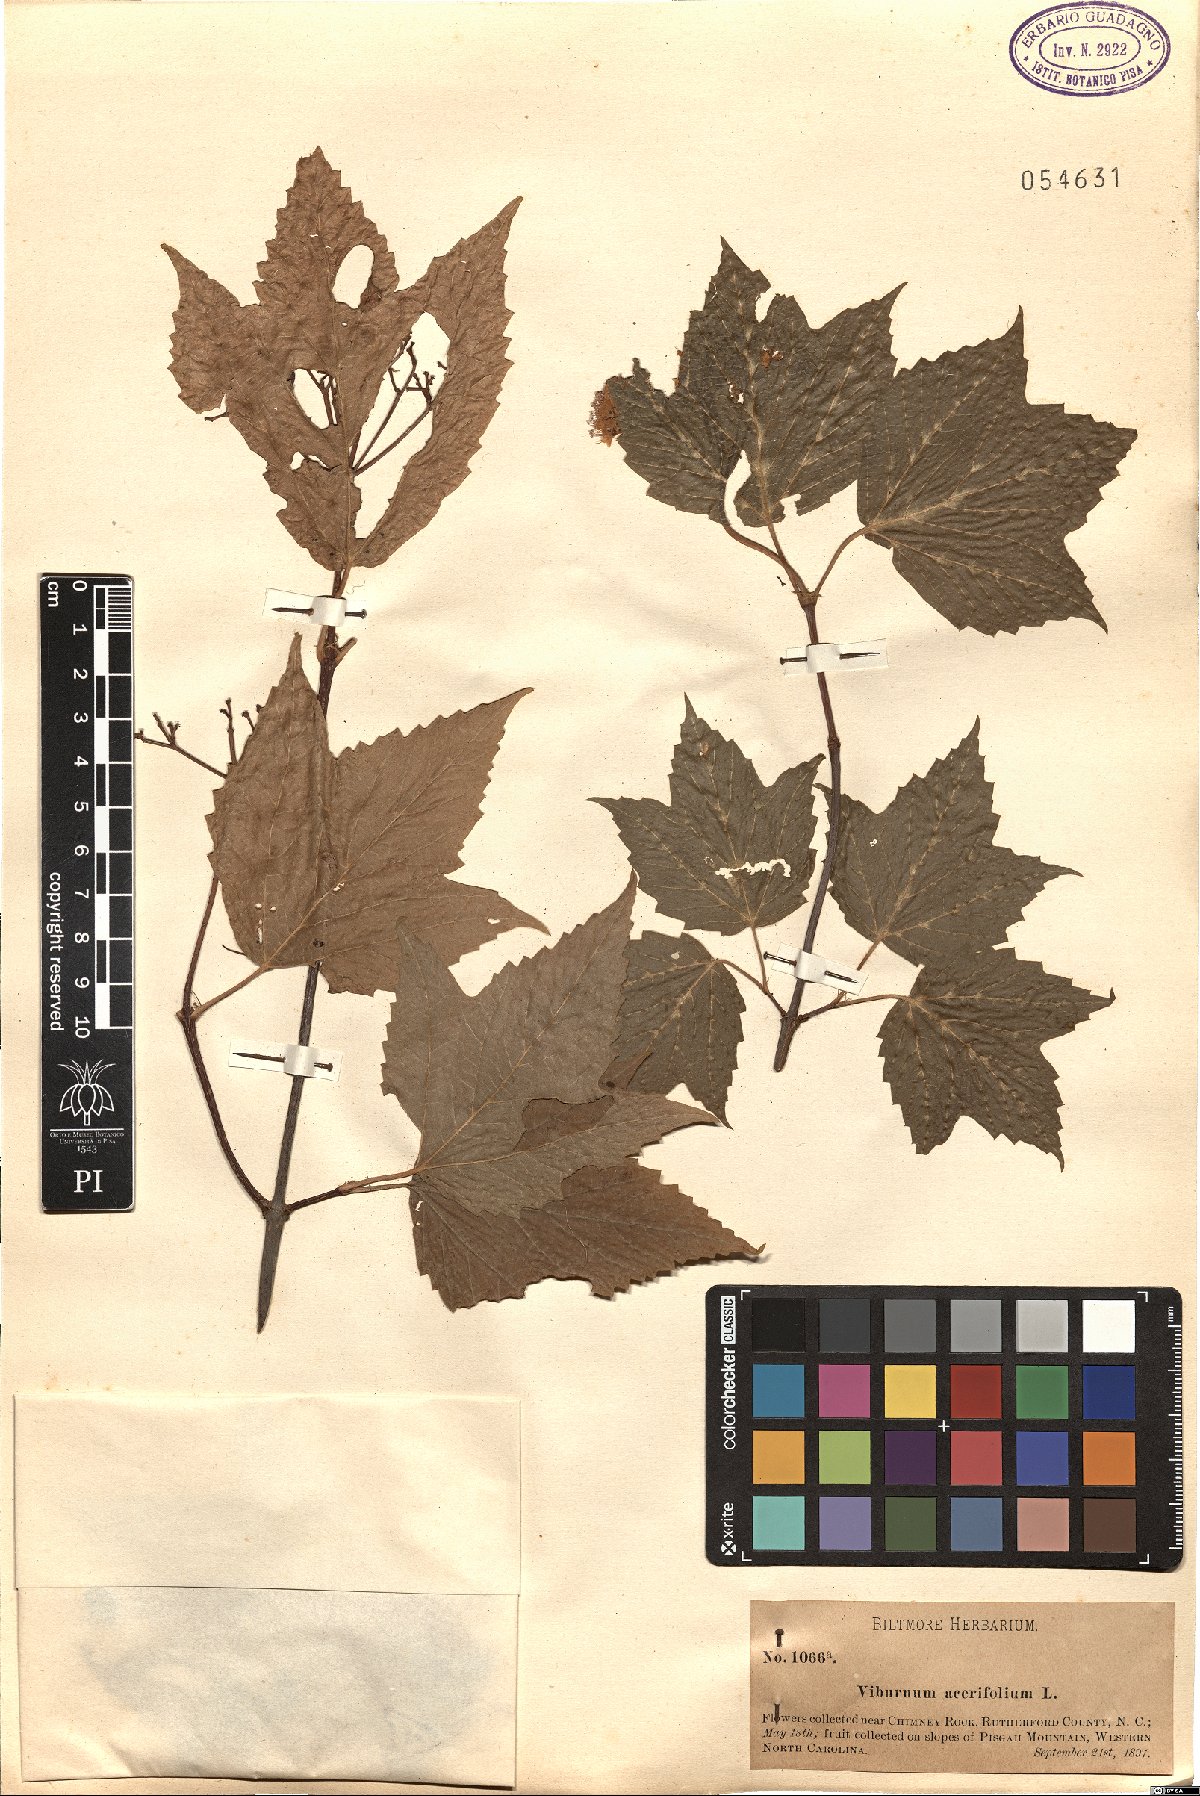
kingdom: Plantae
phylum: Tracheophyta
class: Magnoliopsida
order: Dipsacales
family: Viburnaceae
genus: Viburnum
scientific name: Viburnum acerifolium
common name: Dockmackie
